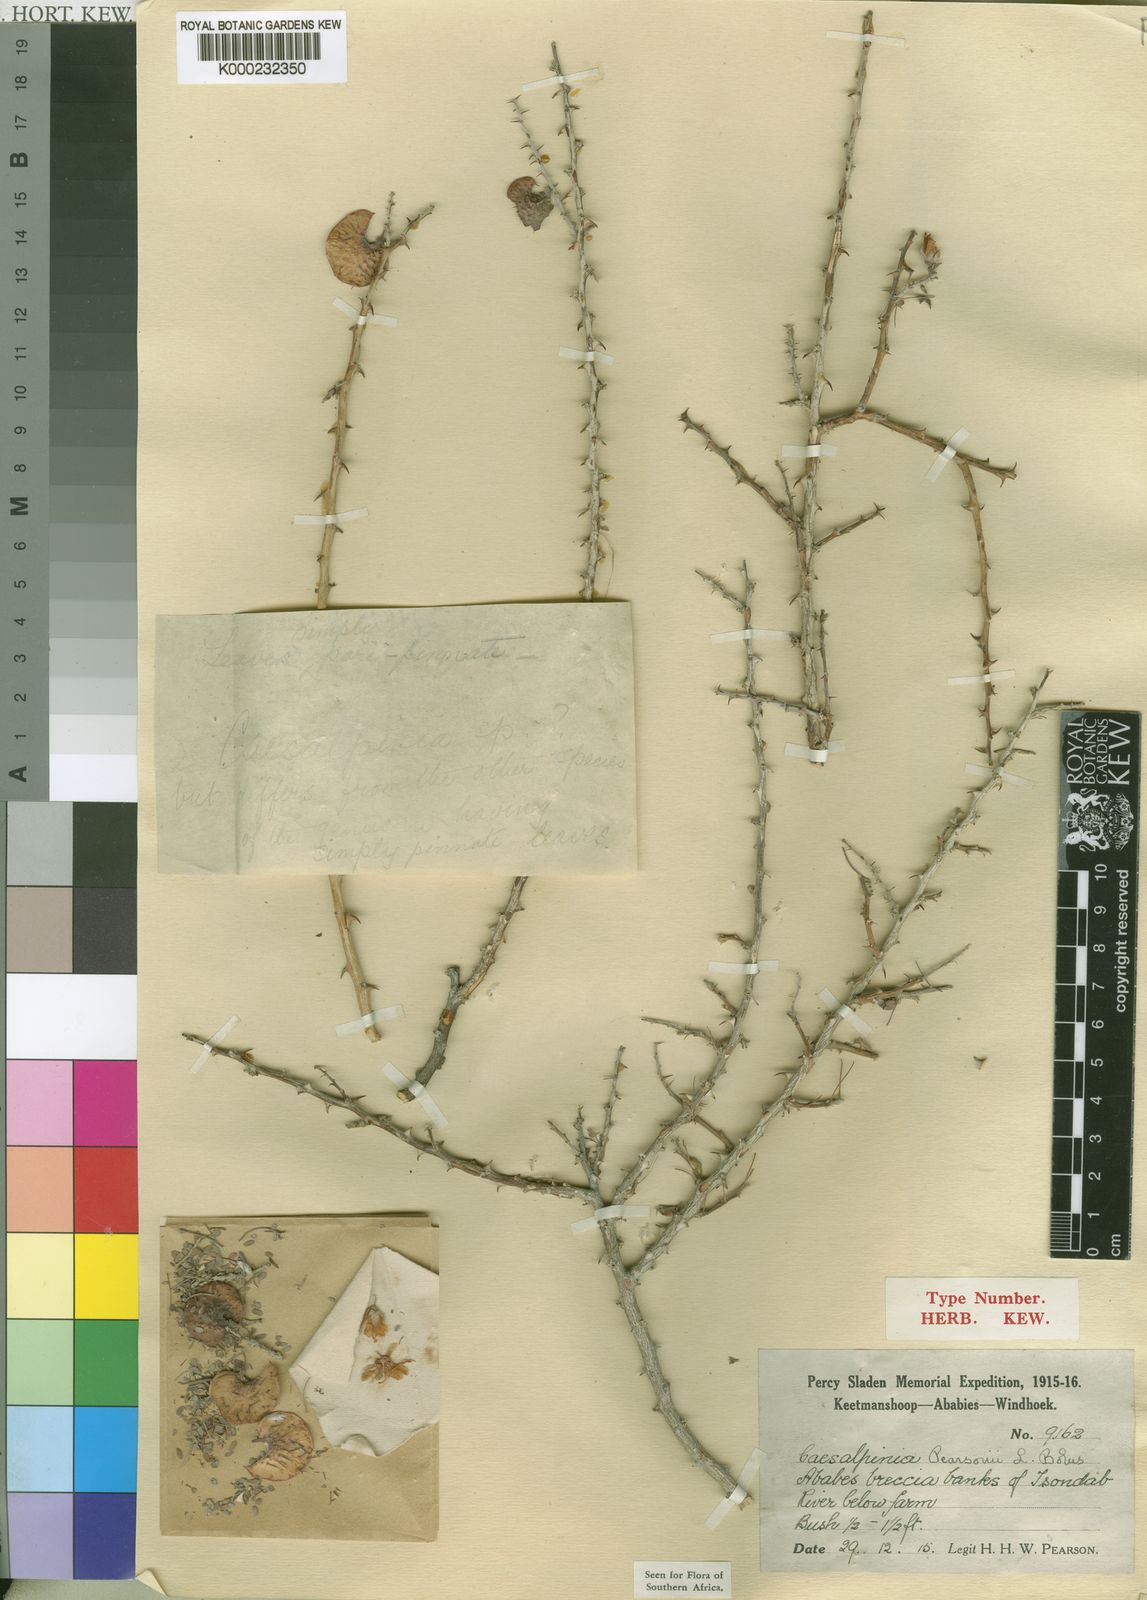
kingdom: Plantae
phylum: Tracheophyta
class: Magnoliopsida
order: Fabales
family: Fabaceae
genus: Hererolandia
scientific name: Hererolandia pearsonii
